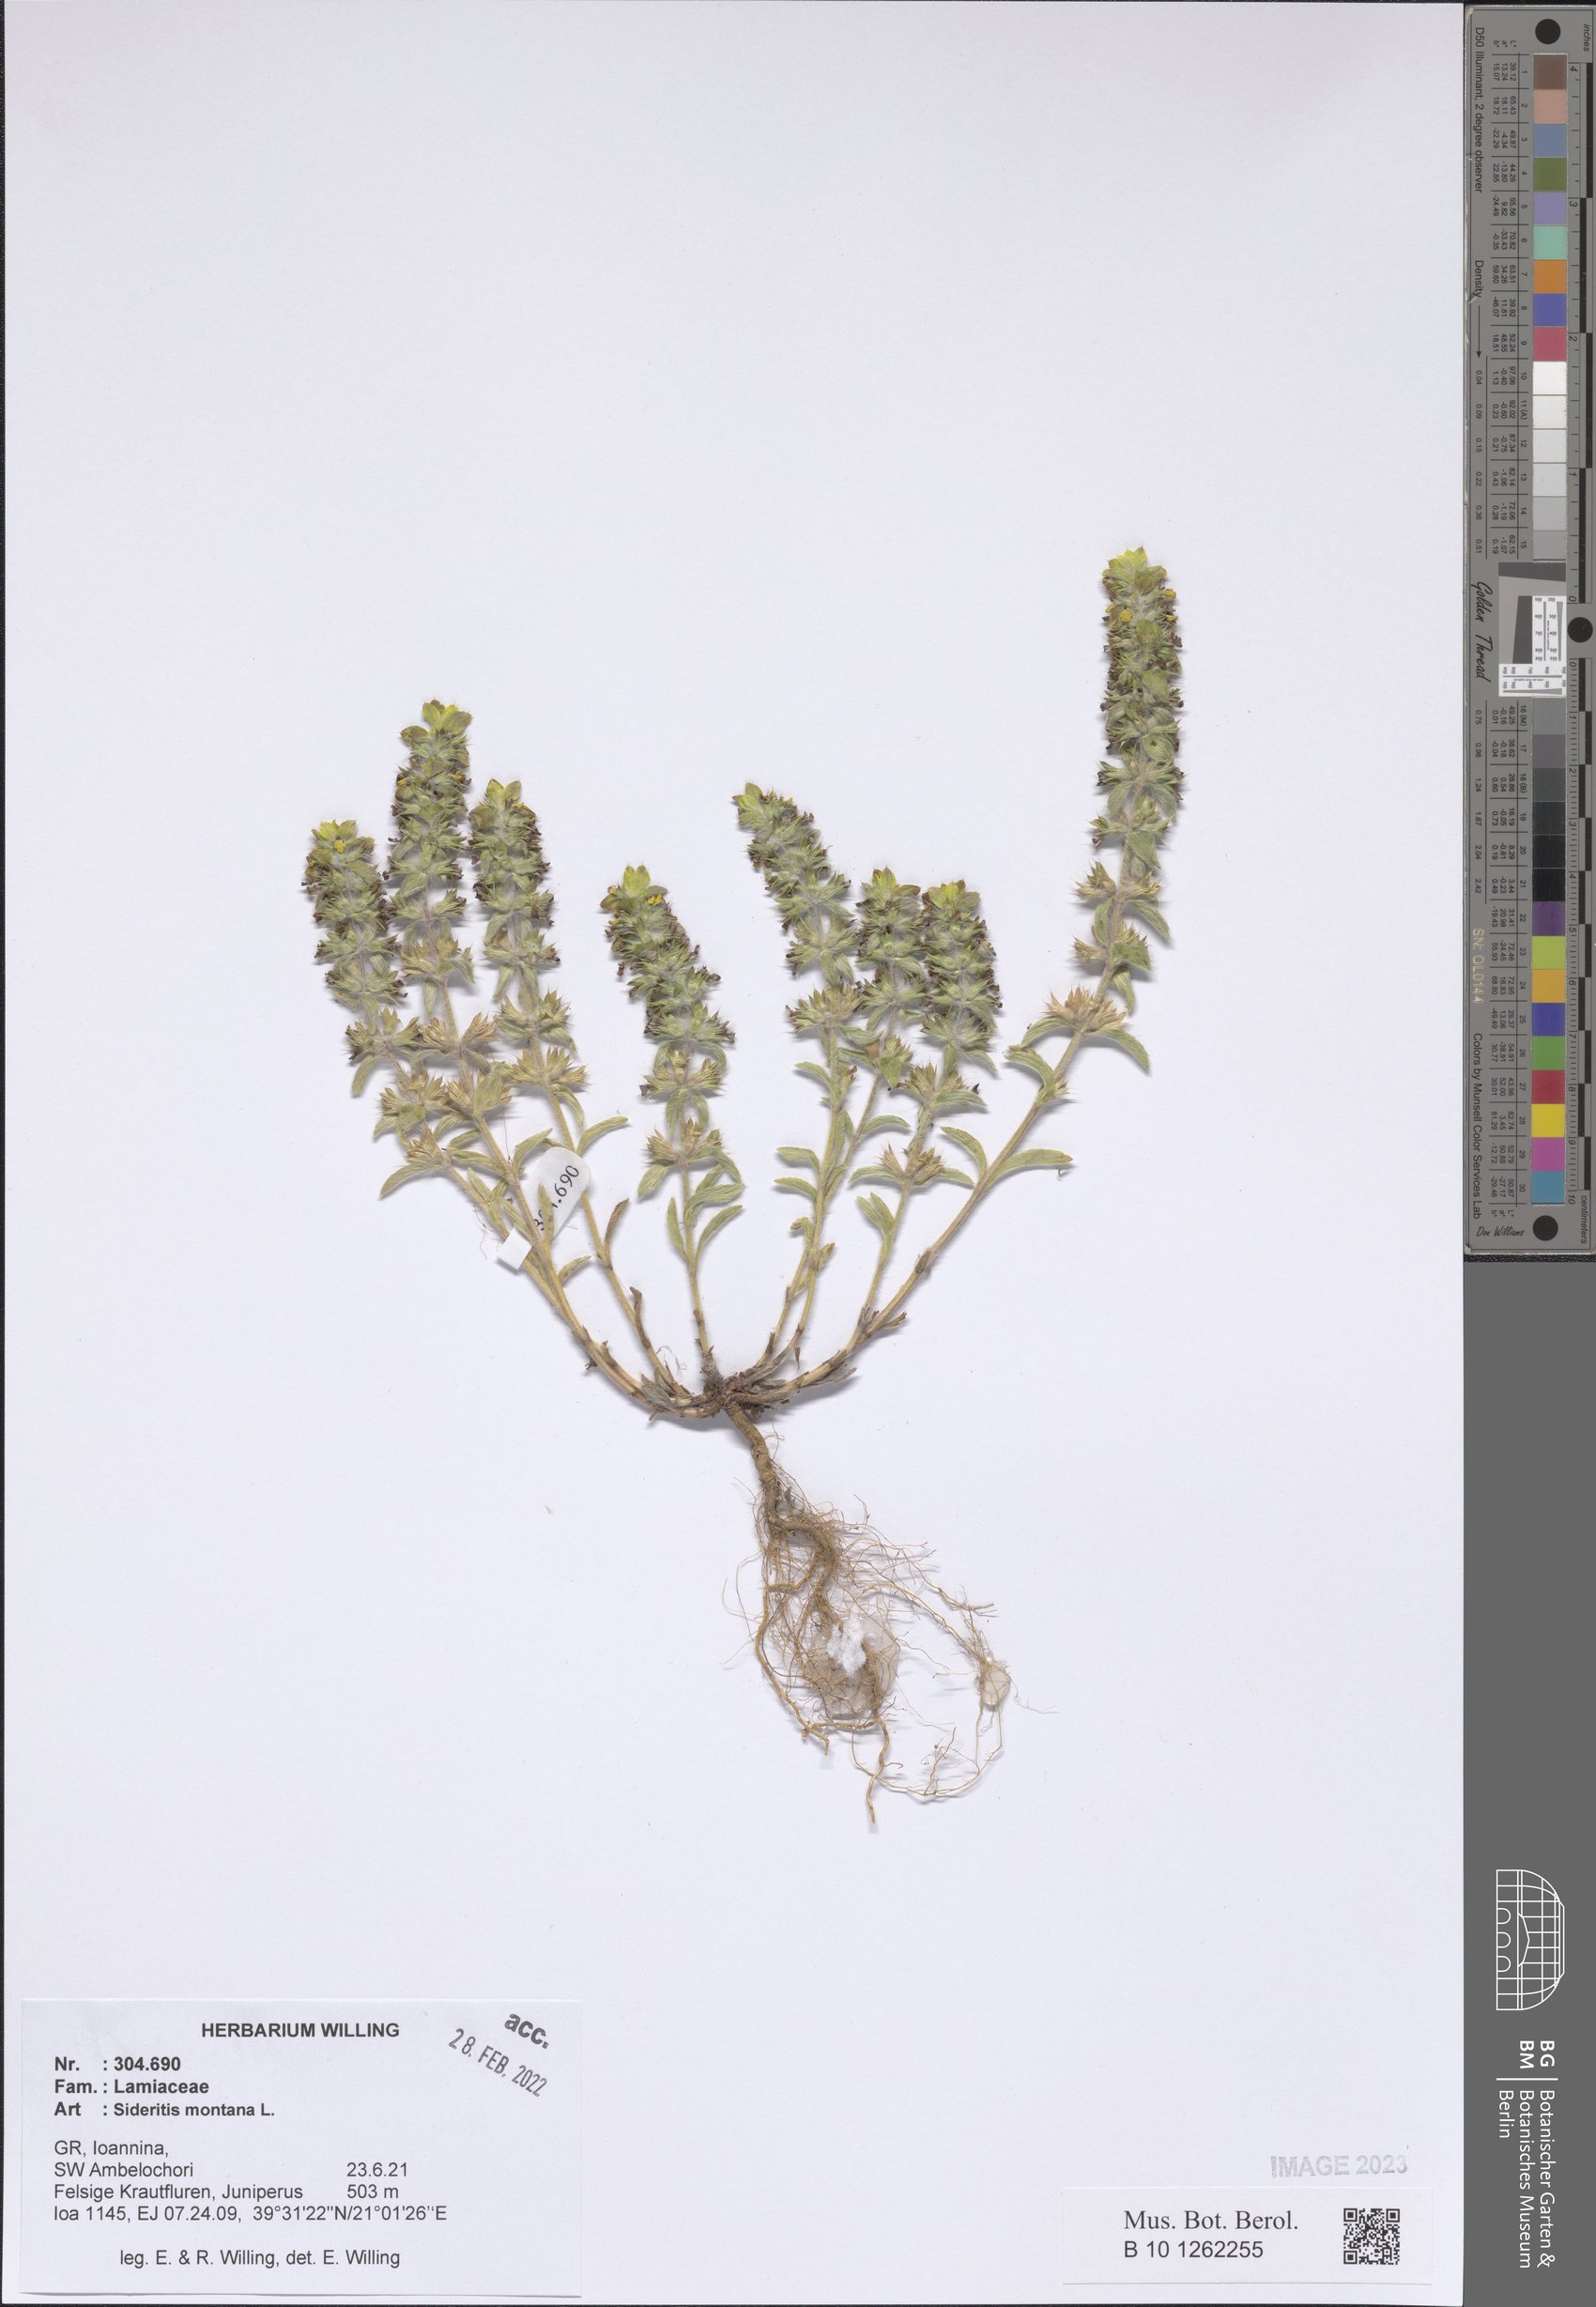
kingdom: Plantae
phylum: Tracheophyta
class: Magnoliopsida
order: Lamiales
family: Lamiaceae
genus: Sideritis
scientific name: Sideritis montana
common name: Mountain ironwort
